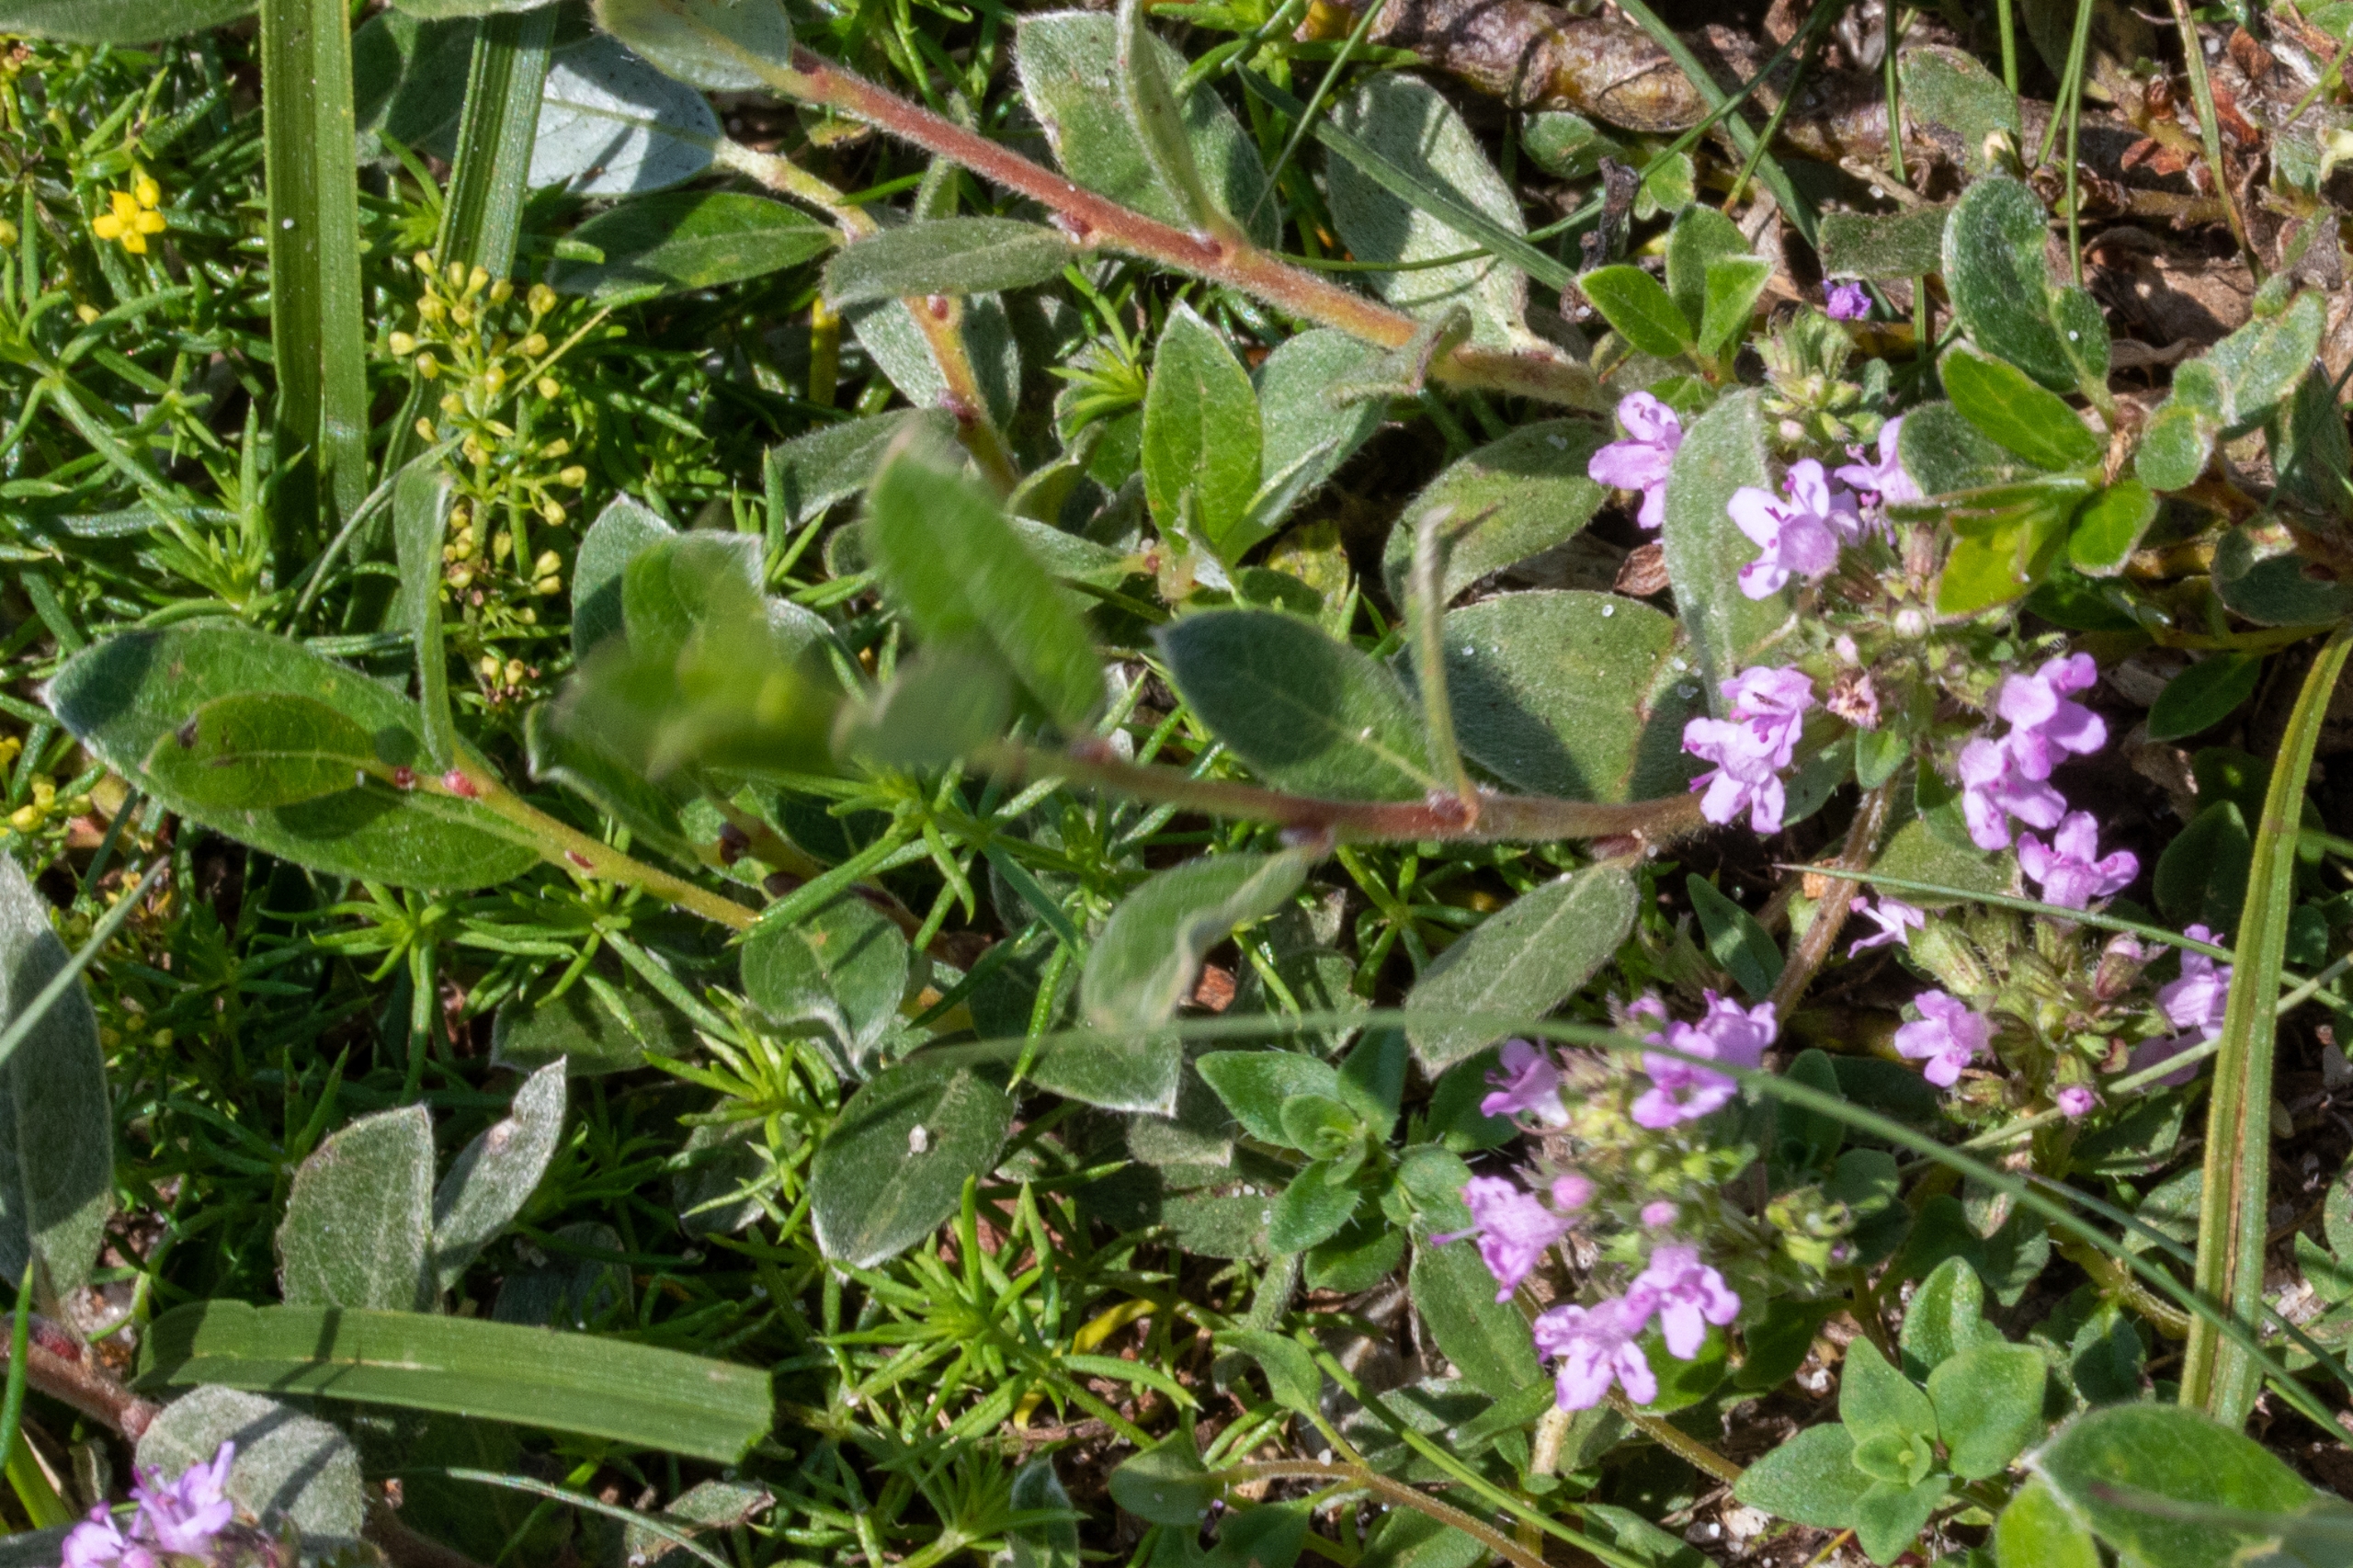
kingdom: Plantae
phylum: Tracheophyta
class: Magnoliopsida
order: Lamiales
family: Lamiaceae
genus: Thymus
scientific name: Thymus pulegioides
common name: Bredbladet timian
